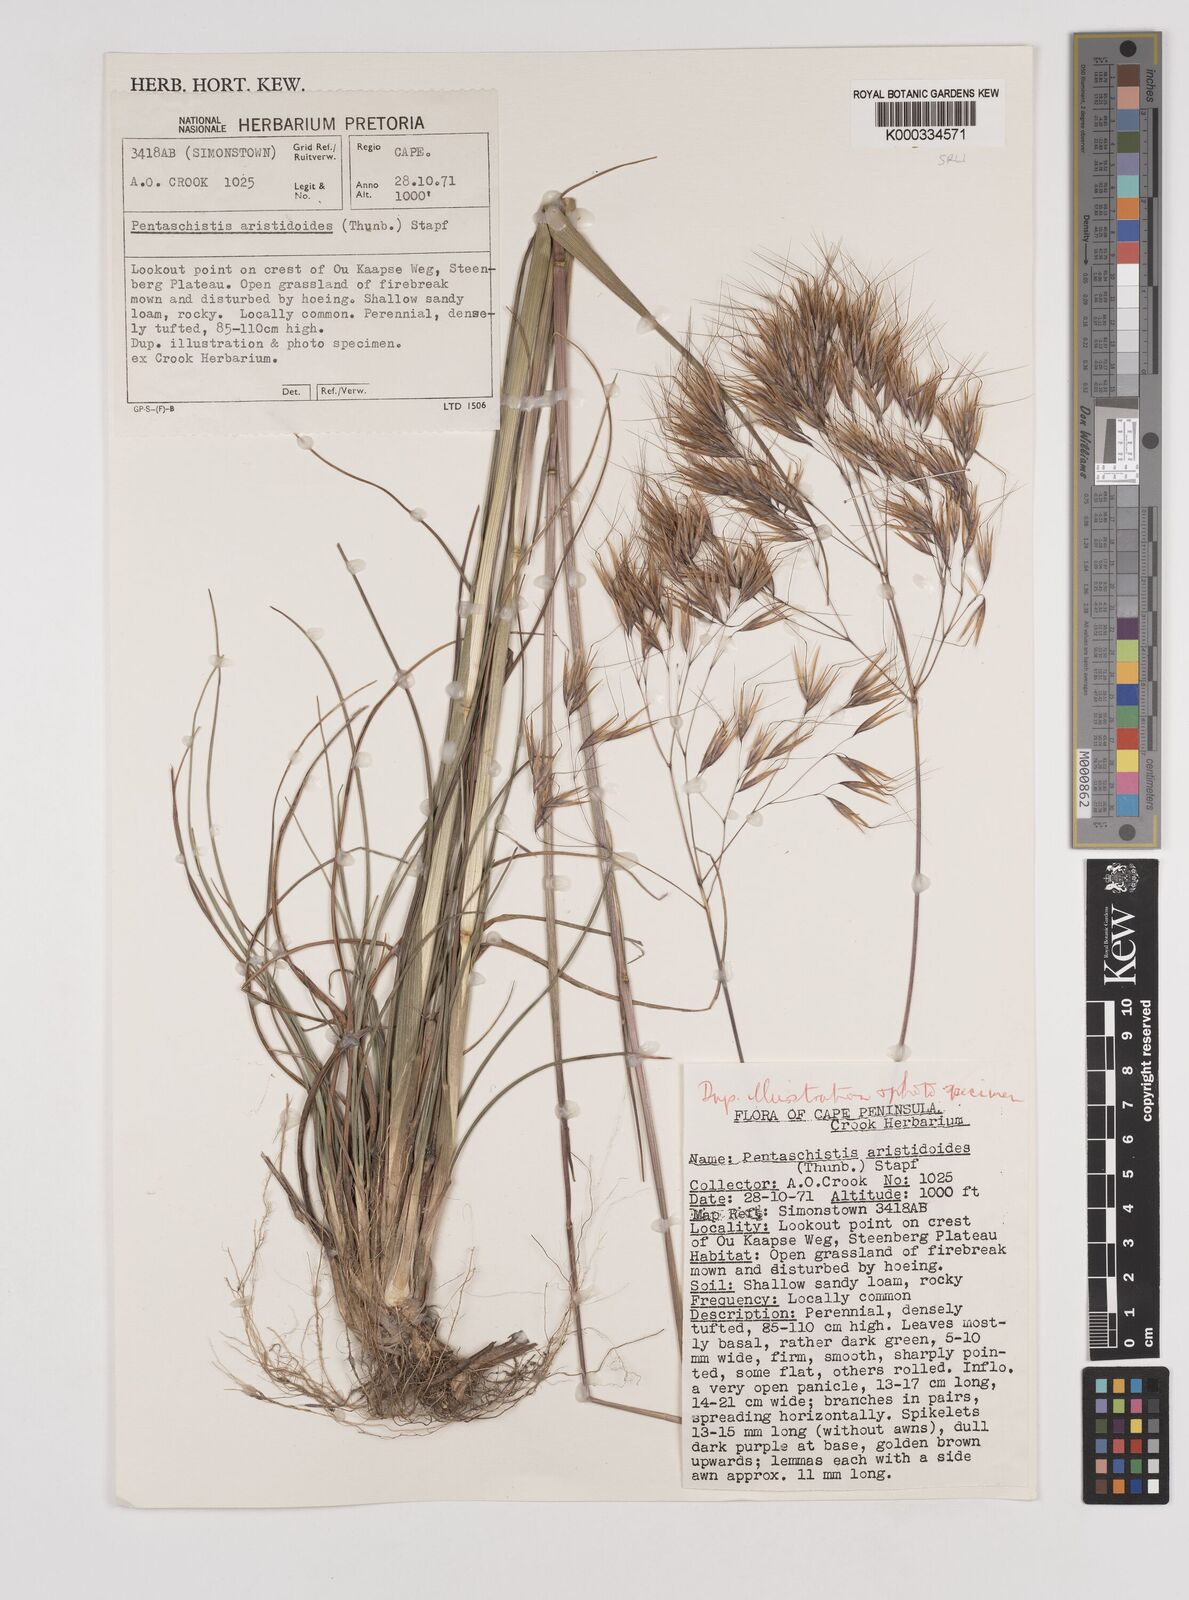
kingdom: Plantae
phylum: Tracheophyta
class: Liliopsida
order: Poales
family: Poaceae
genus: Pentameris
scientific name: Pentameris aristidoides
